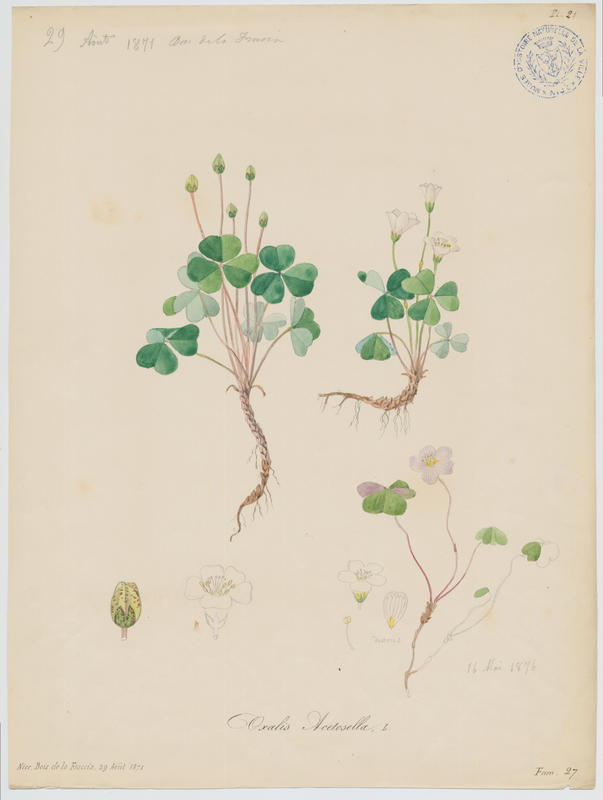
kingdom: Plantae
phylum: Tracheophyta
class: Magnoliopsida
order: Oxalidales
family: Oxalidaceae
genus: Oxalis
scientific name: Oxalis acetosella
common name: Wood-sorrel
